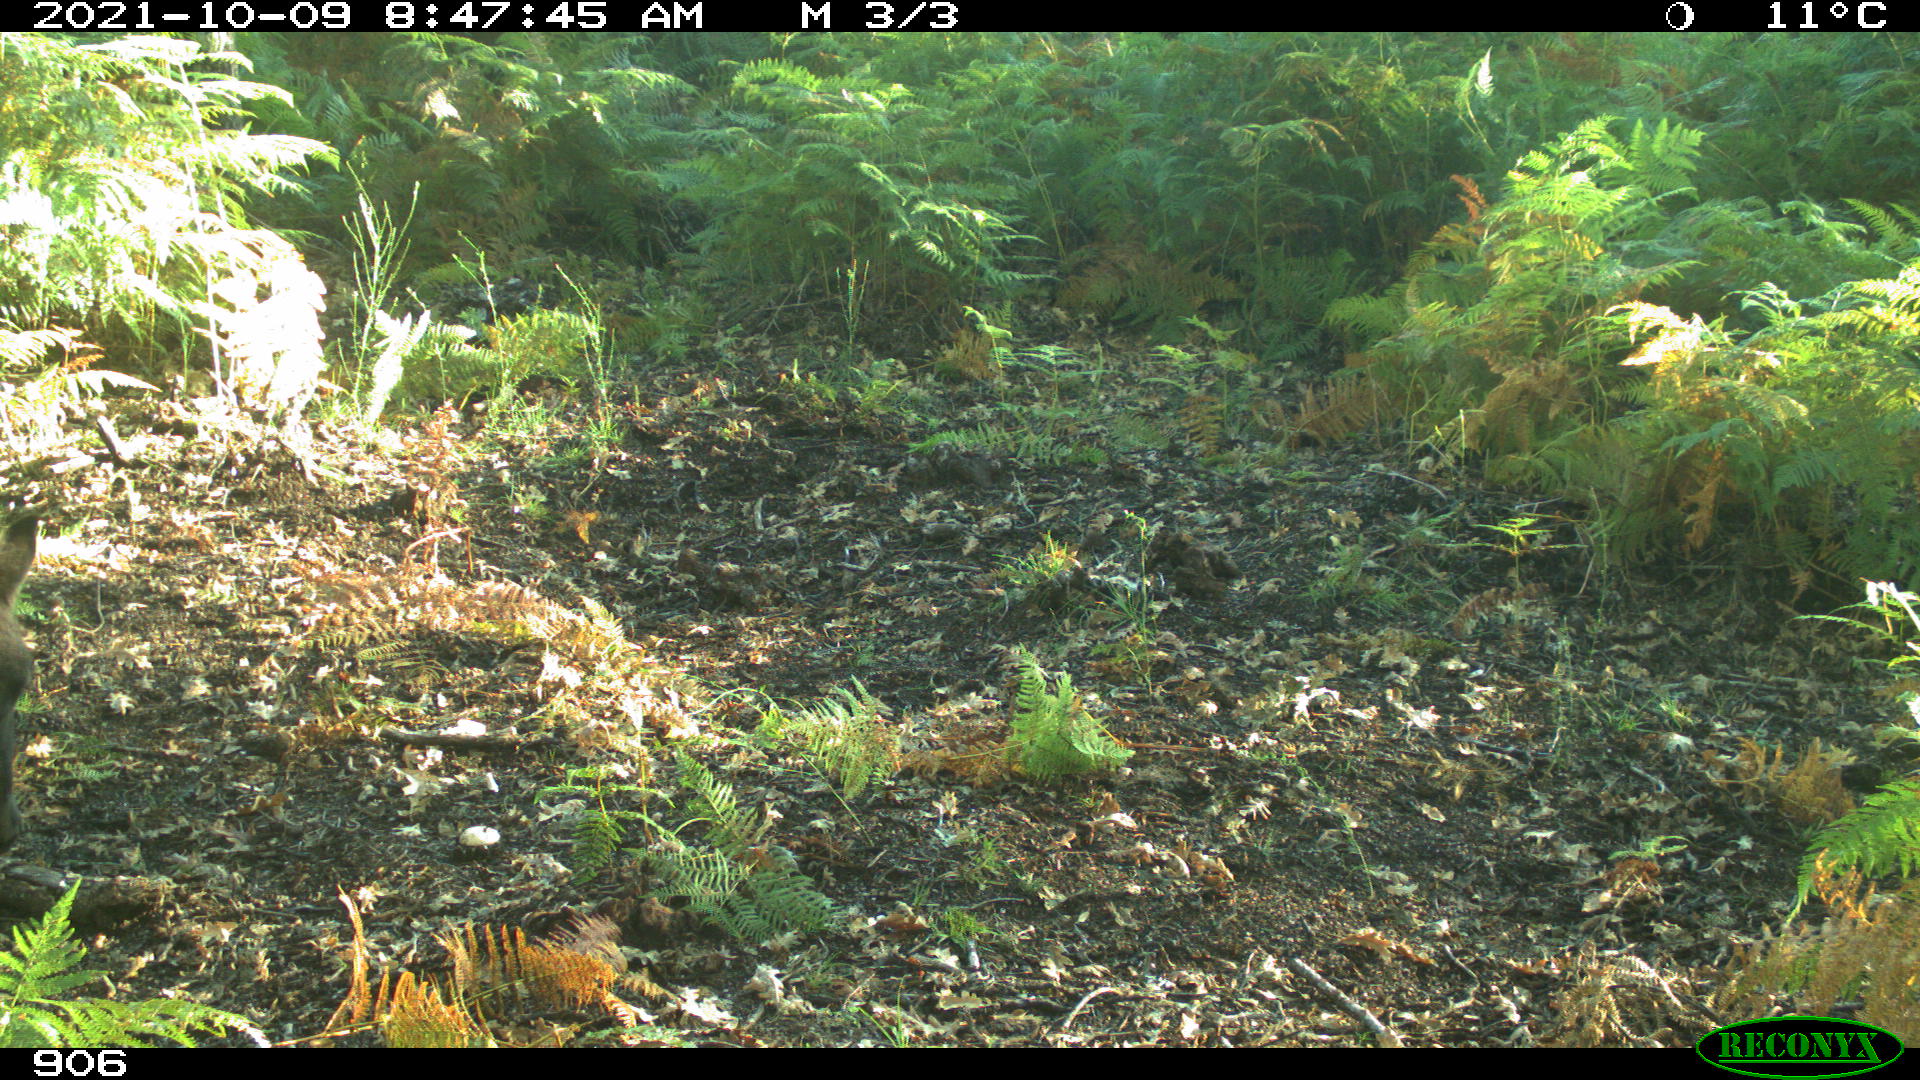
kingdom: Animalia
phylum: Chordata
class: Mammalia
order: Perissodactyla
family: Equidae
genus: Equus
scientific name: Equus caballus
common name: Horse
